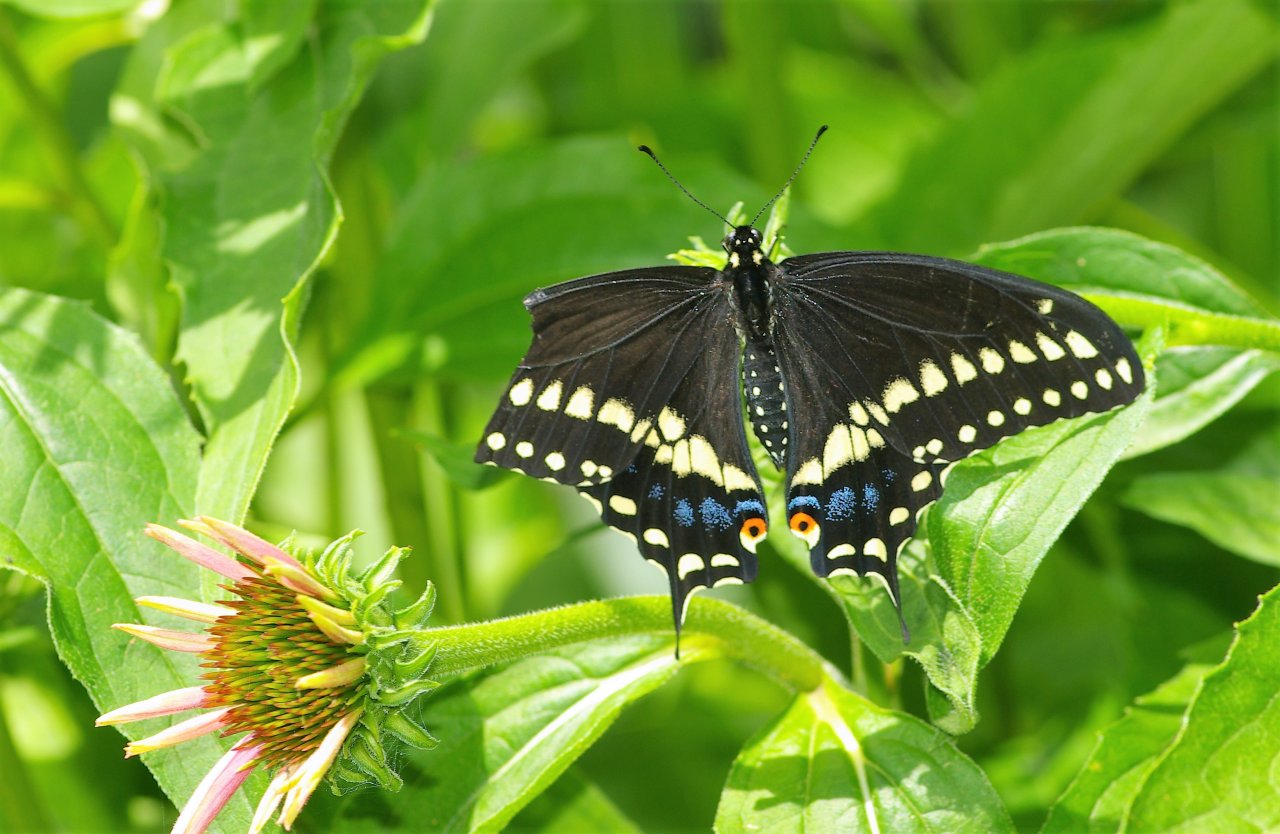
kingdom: Animalia
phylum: Arthropoda
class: Insecta
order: Lepidoptera
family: Papilionidae
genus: Papilio
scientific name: Papilio polyxenes
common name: Black Swallowtail
